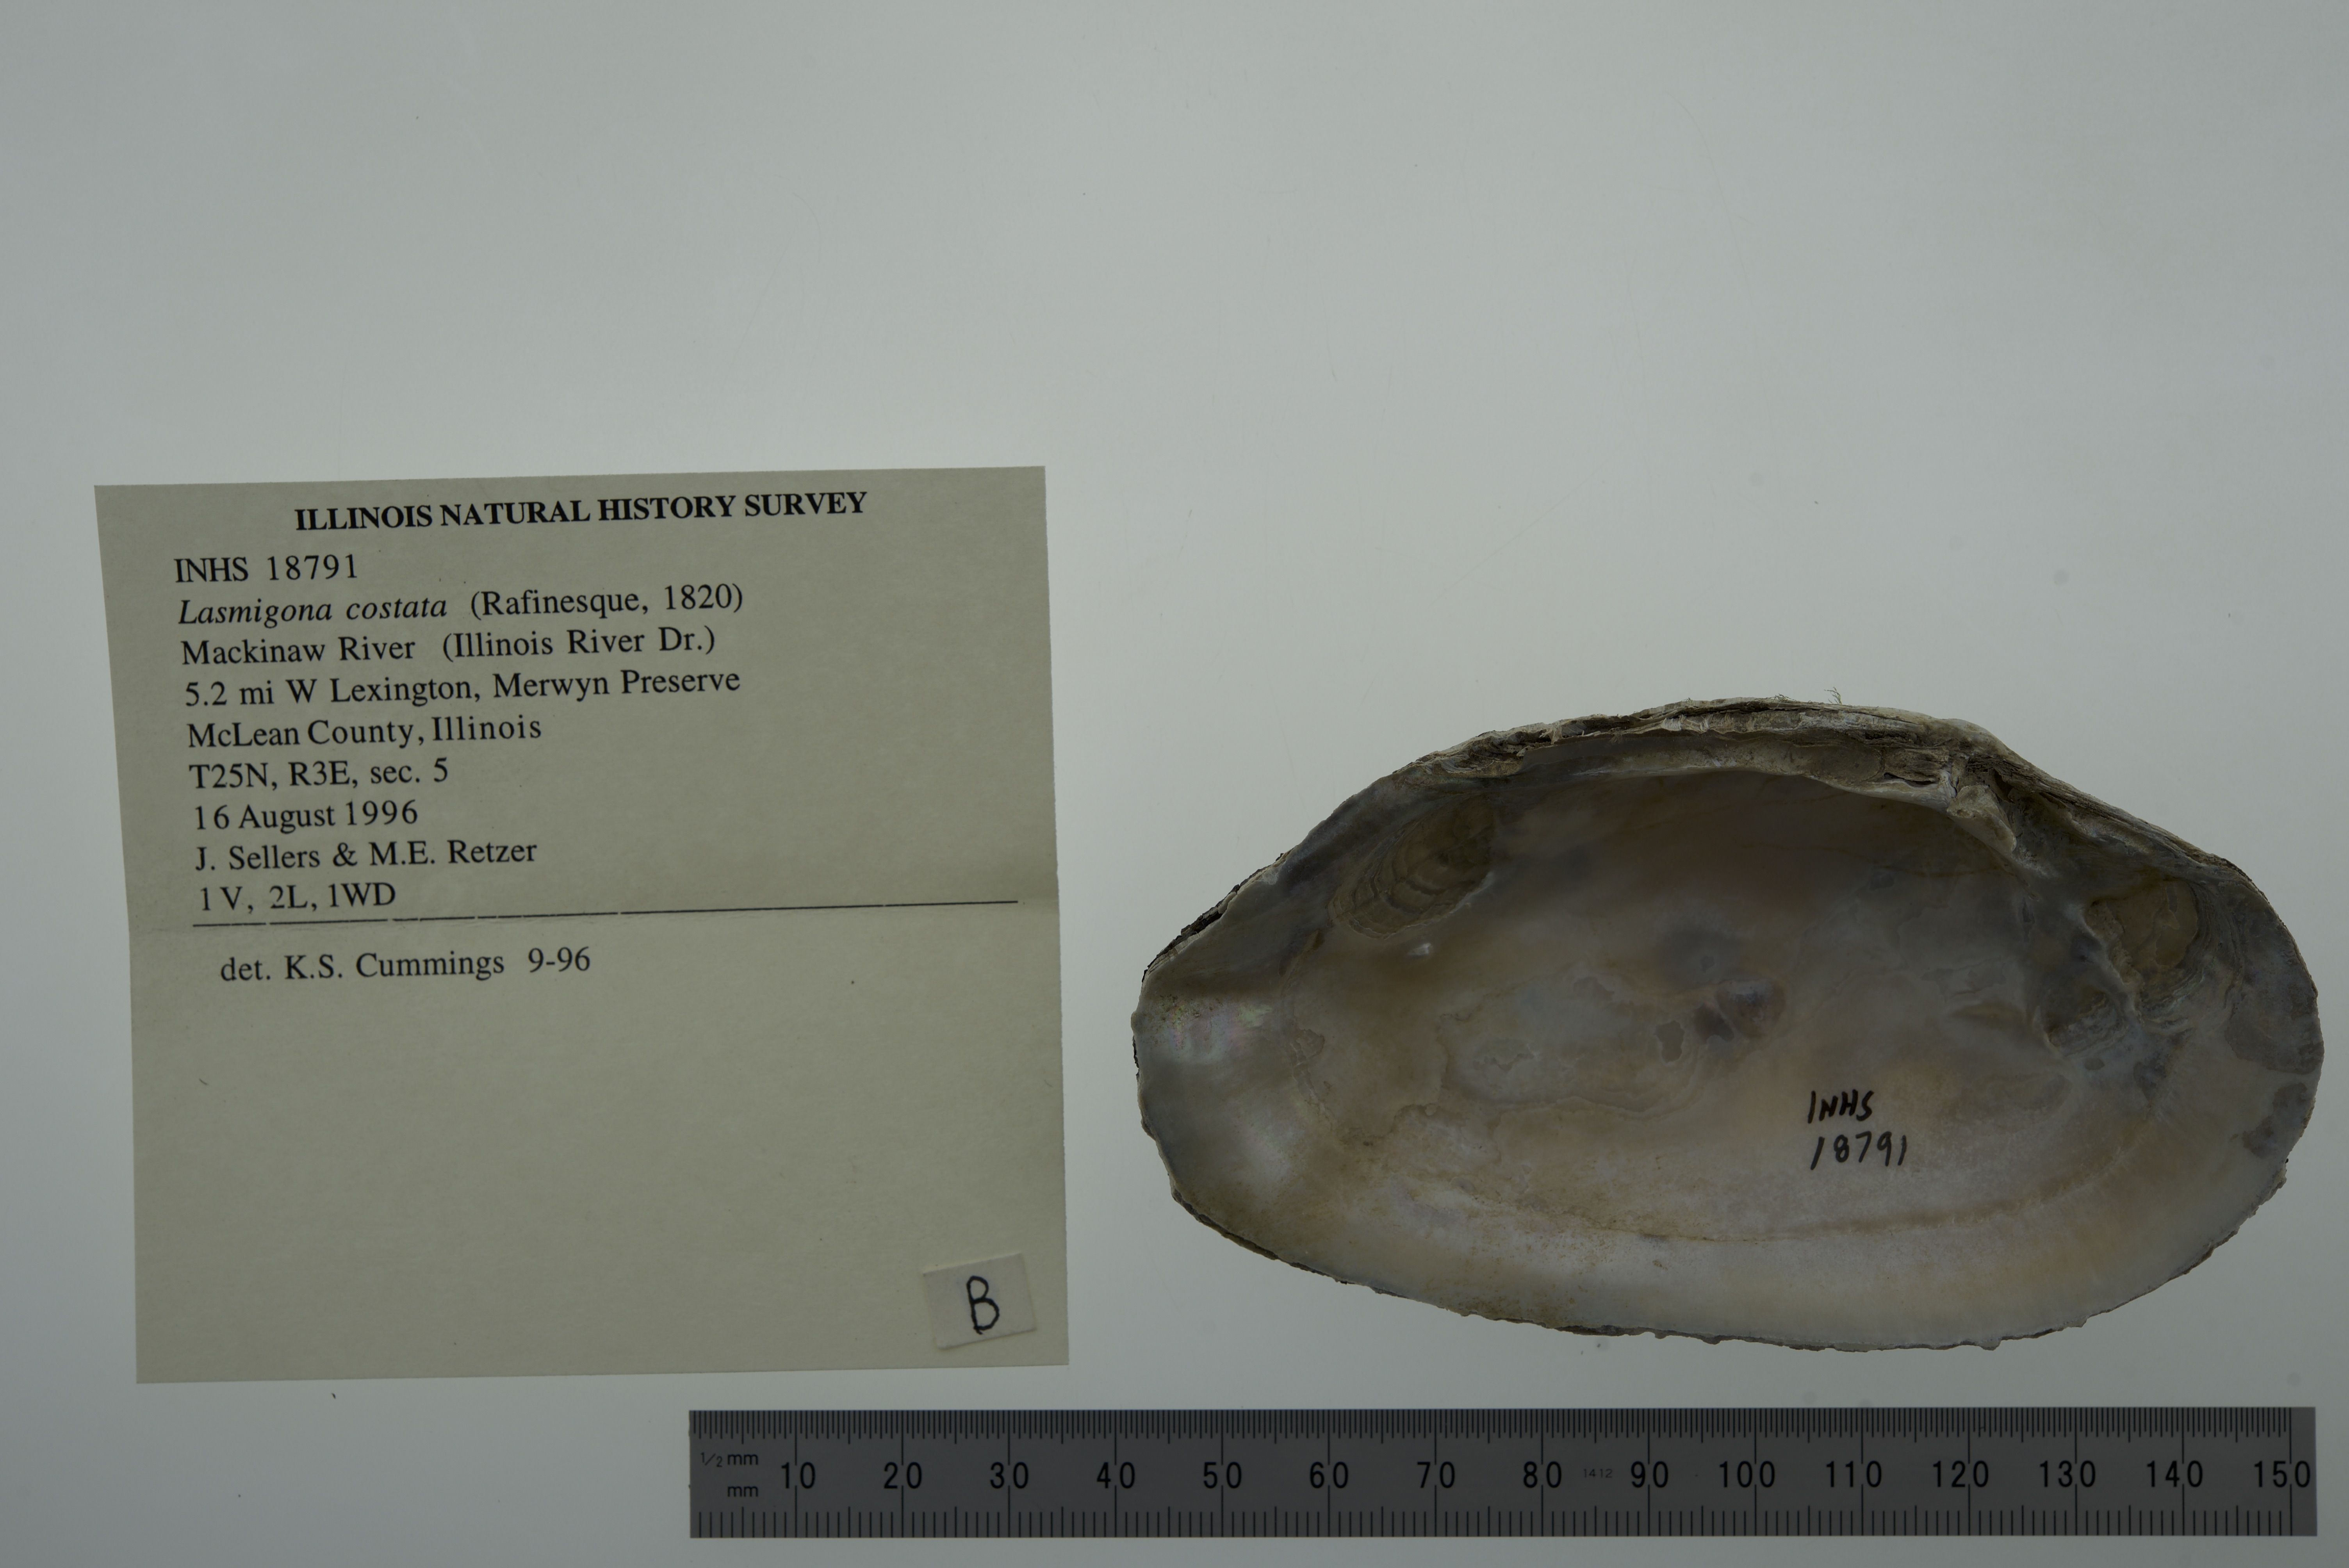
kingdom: Animalia
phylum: Mollusca
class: Bivalvia
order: Unionida
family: Unionidae
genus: Lasmigona
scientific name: Lasmigona costata
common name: Flutedshell
